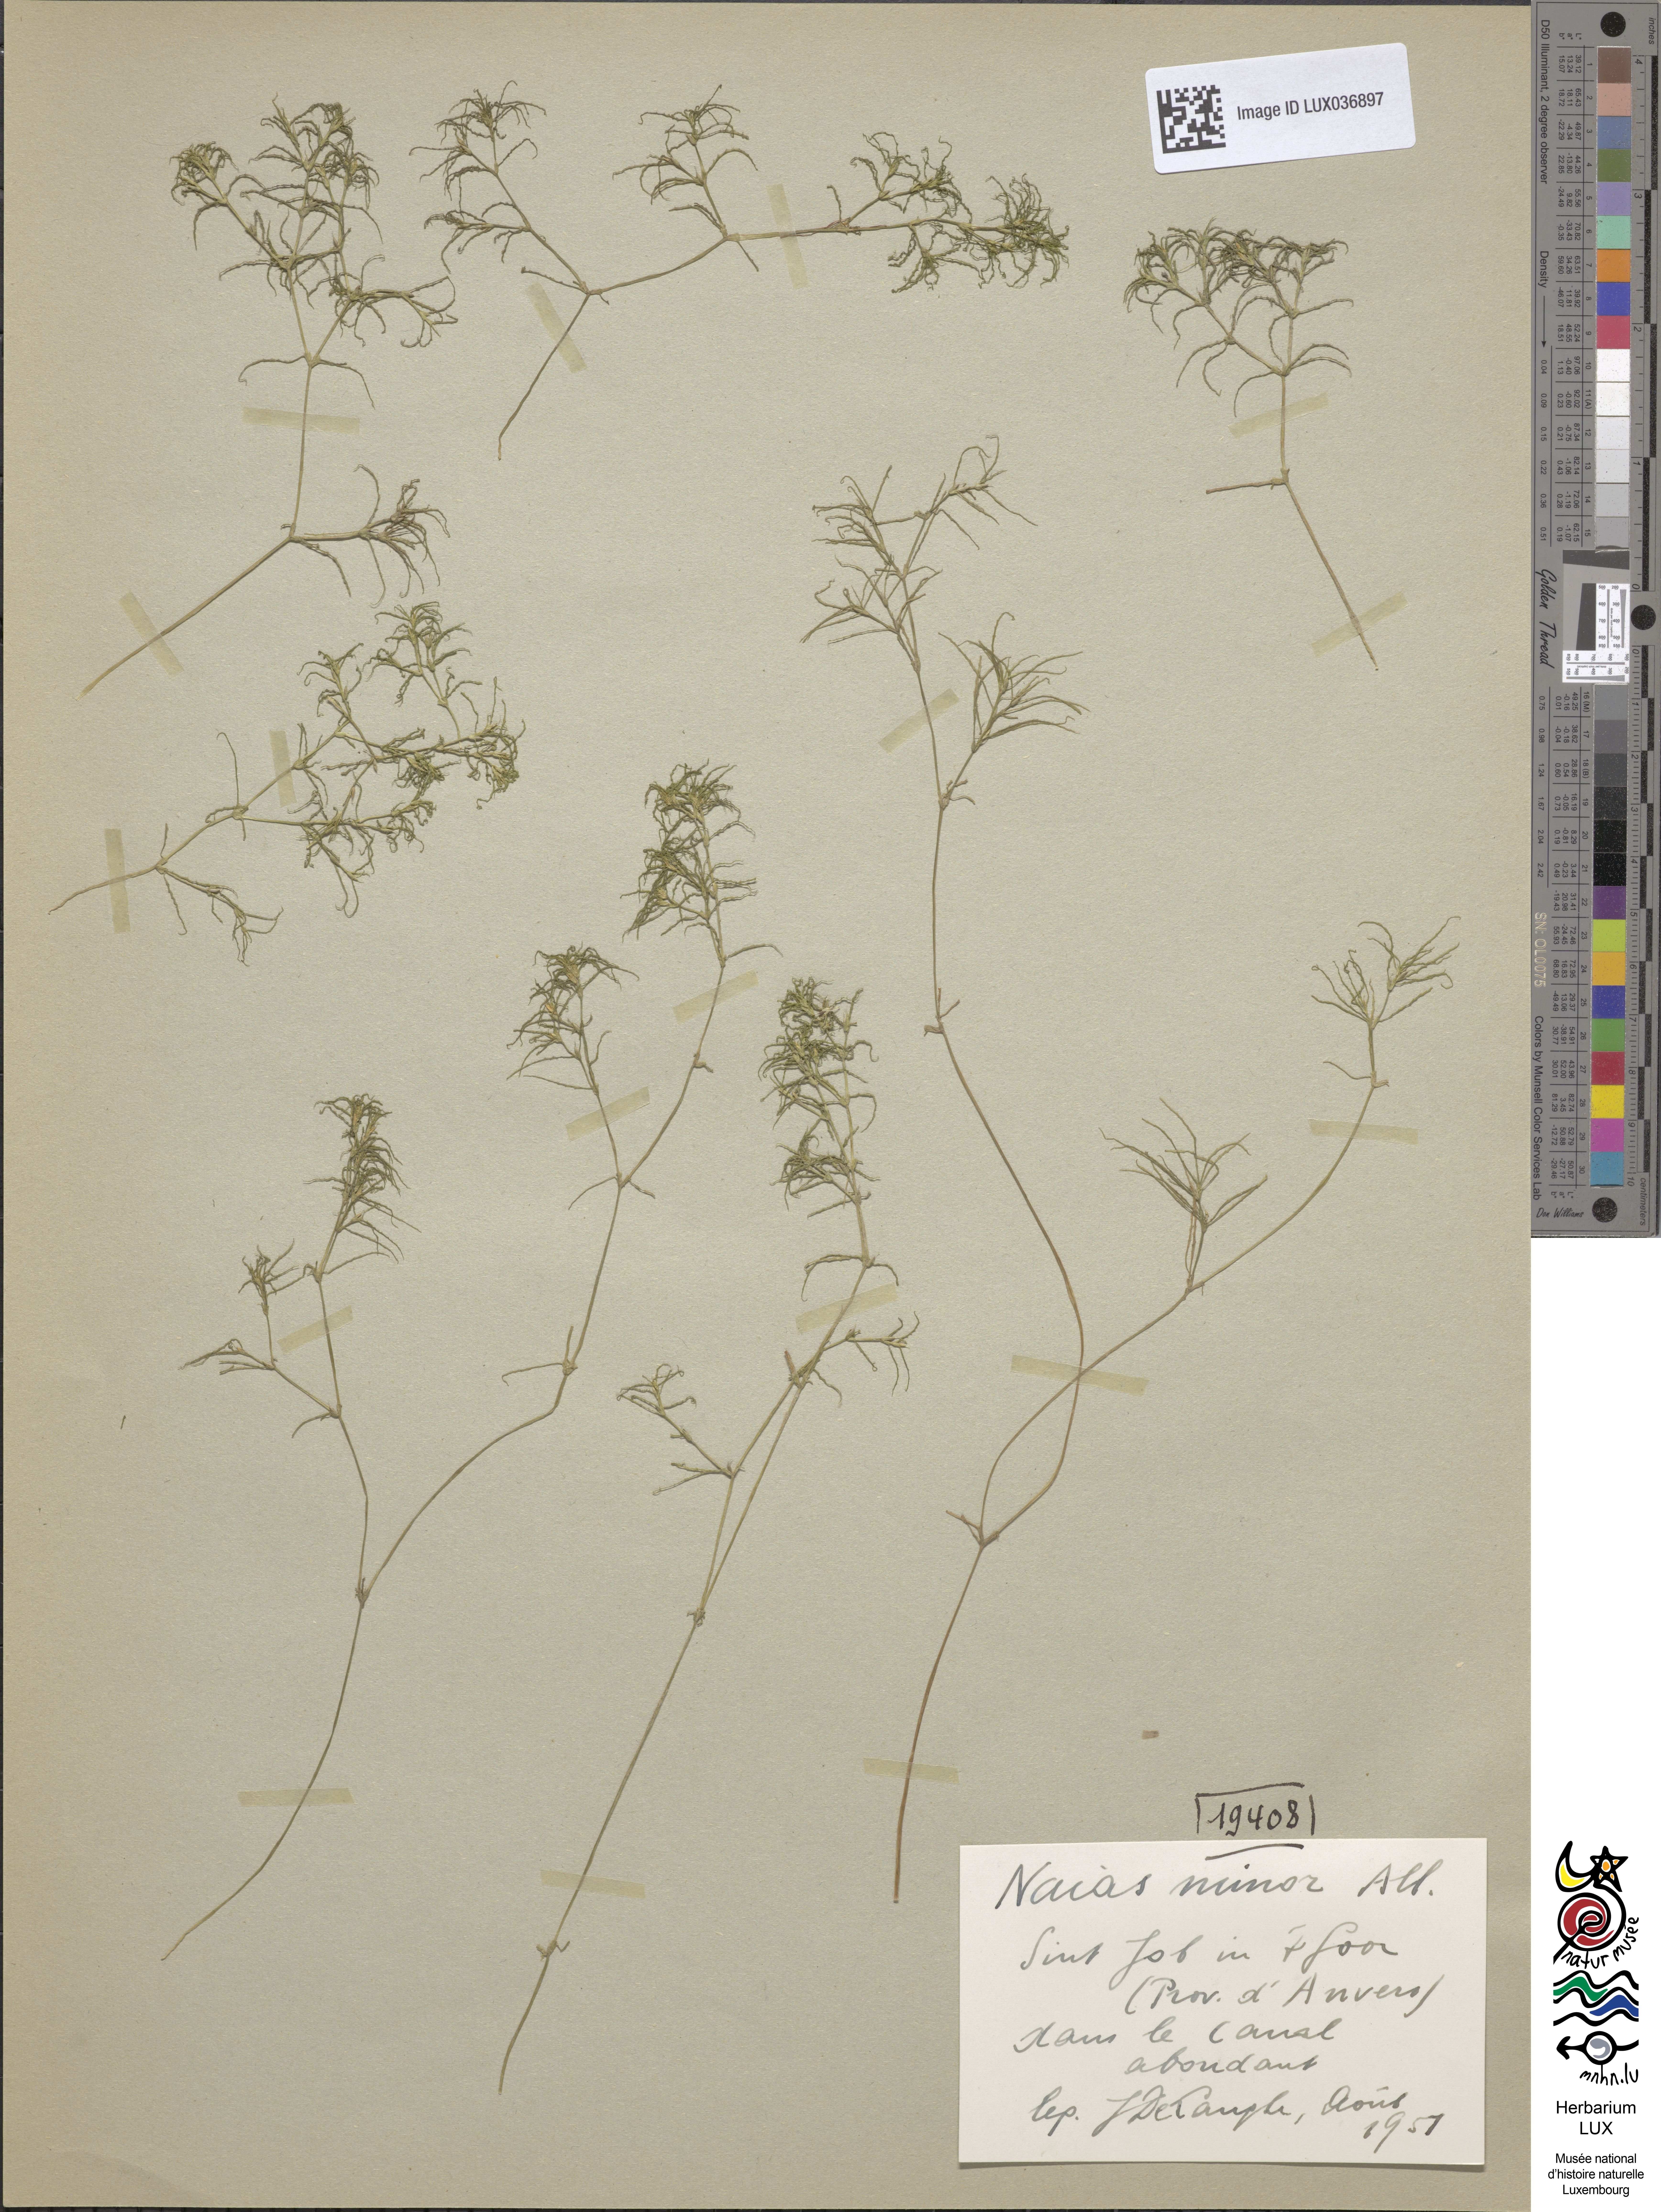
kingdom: Plantae
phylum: Tracheophyta
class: Liliopsida
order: Alismatales
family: Hydrocharitaceae
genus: Najas
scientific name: Najas minor
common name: Brittle naiad
